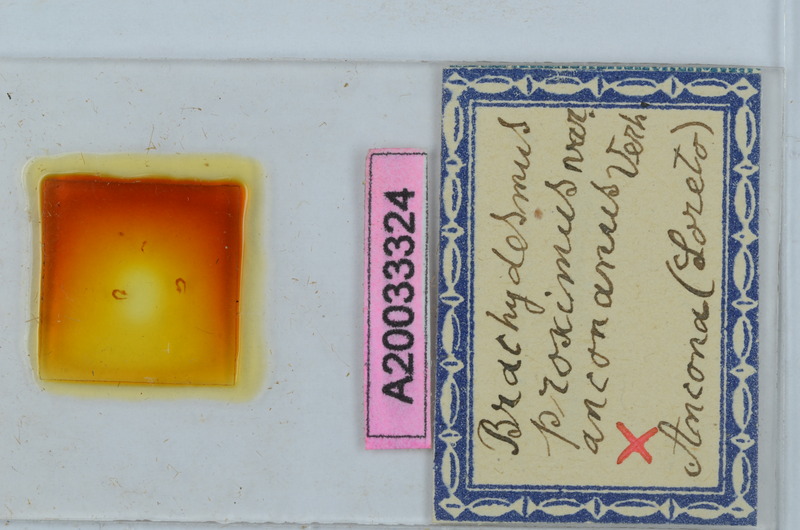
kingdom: Animalia
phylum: Arthropoda
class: Diplopoda
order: Polydesmida
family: Polydesmidae
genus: Brachydesmus
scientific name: Brachydesmus proximus
